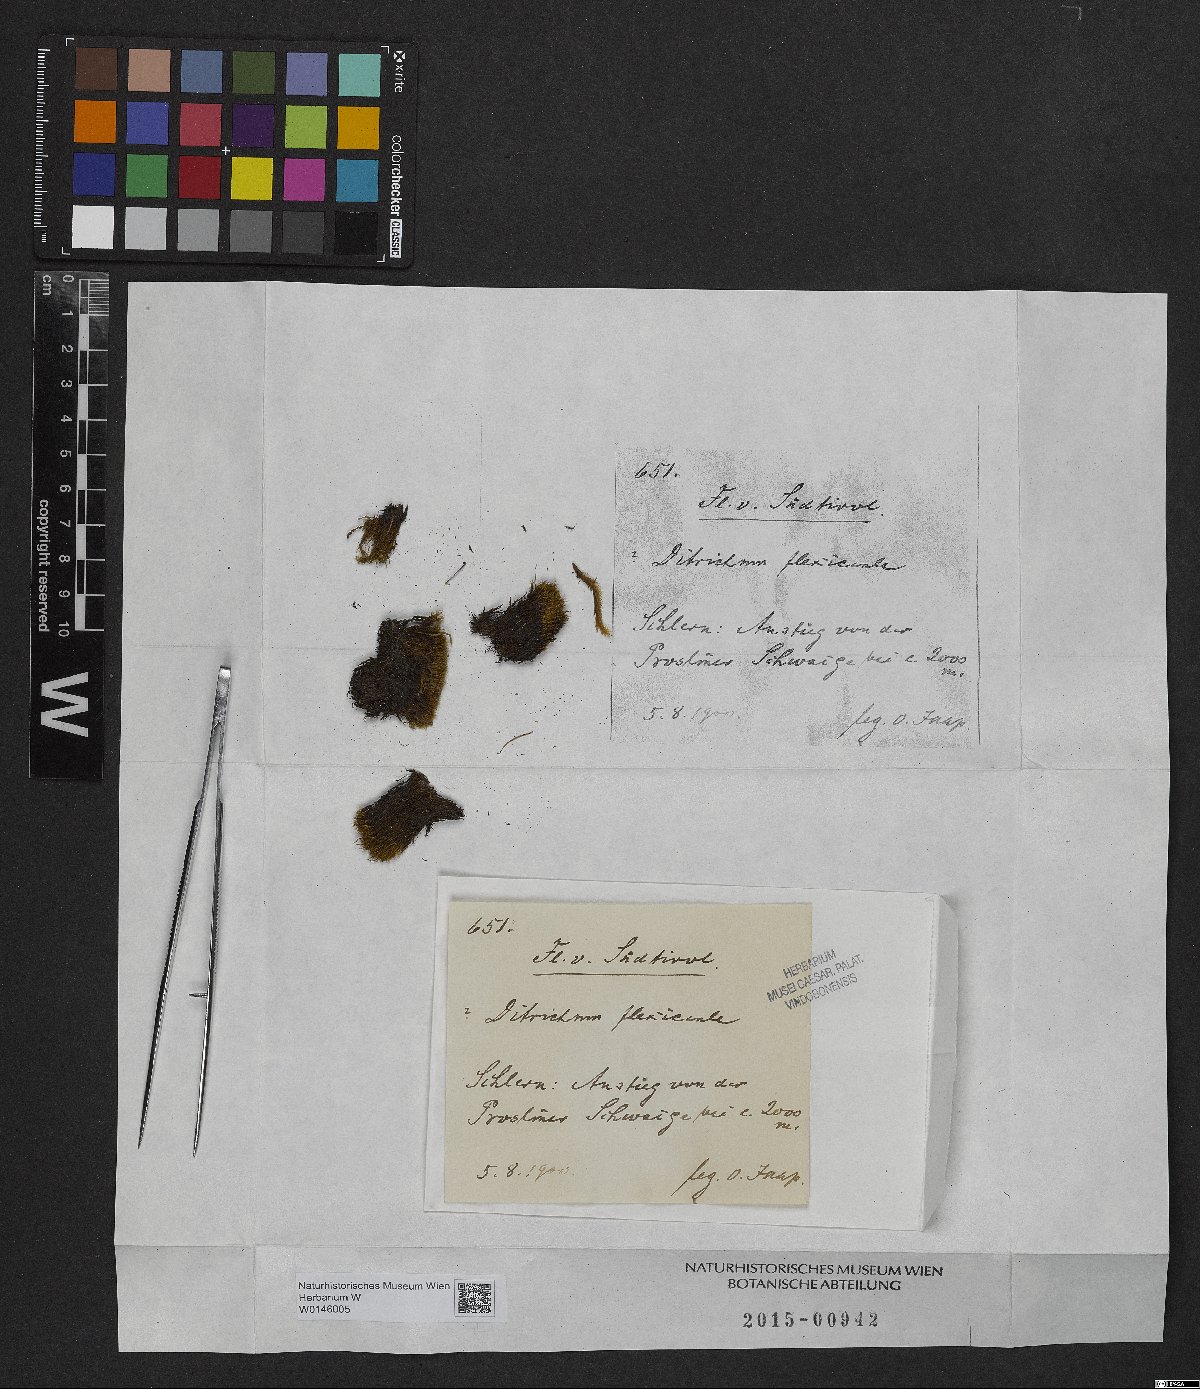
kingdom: Plantae
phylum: Bryophyta
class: Bryopsida
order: Scouleriales
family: Flexitrichaceae
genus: Flexitrichum
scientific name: Flexitrichum flexicaule
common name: Bendy ditrichum
